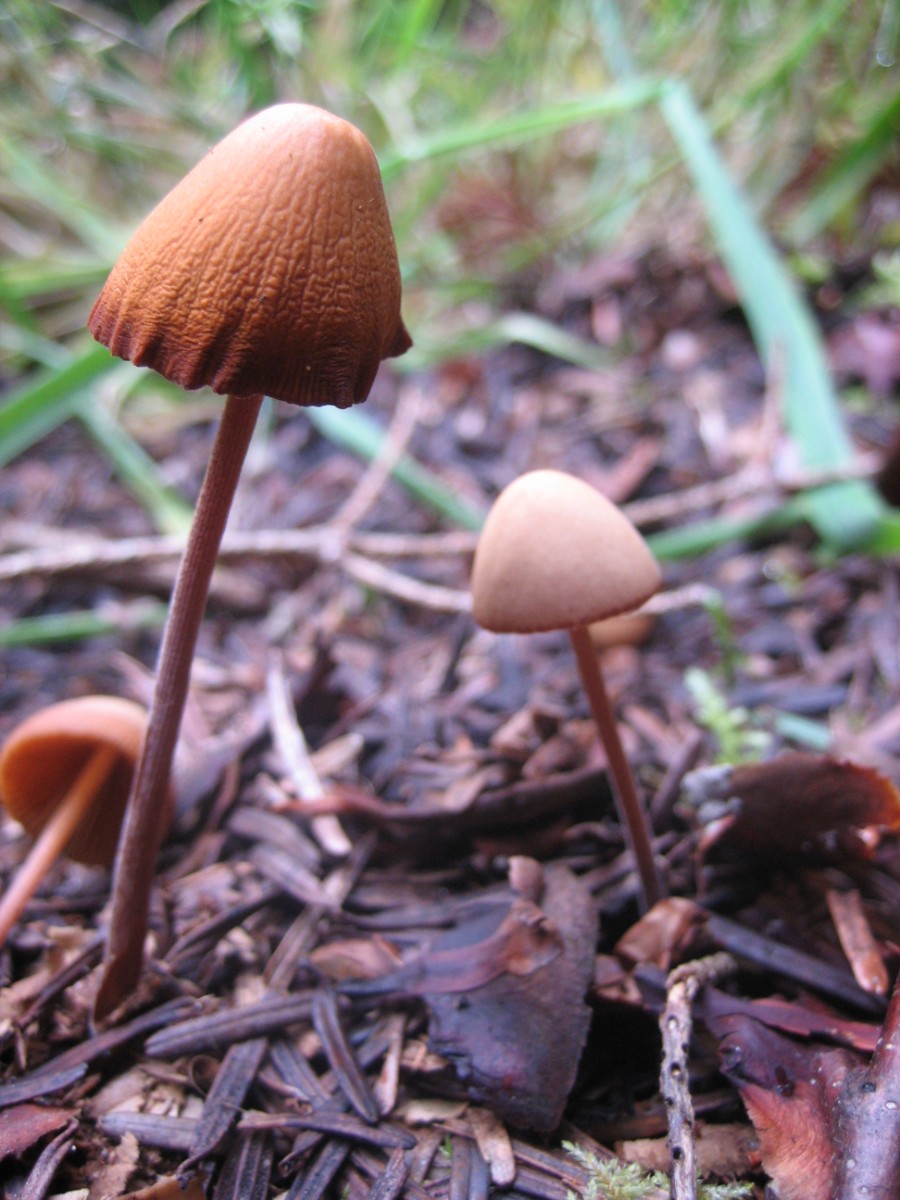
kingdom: Fungi
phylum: Basidiomycota
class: Agaricomycetes
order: Agaricales
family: Bolbitiaceae
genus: Conocybe
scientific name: Conocybe
